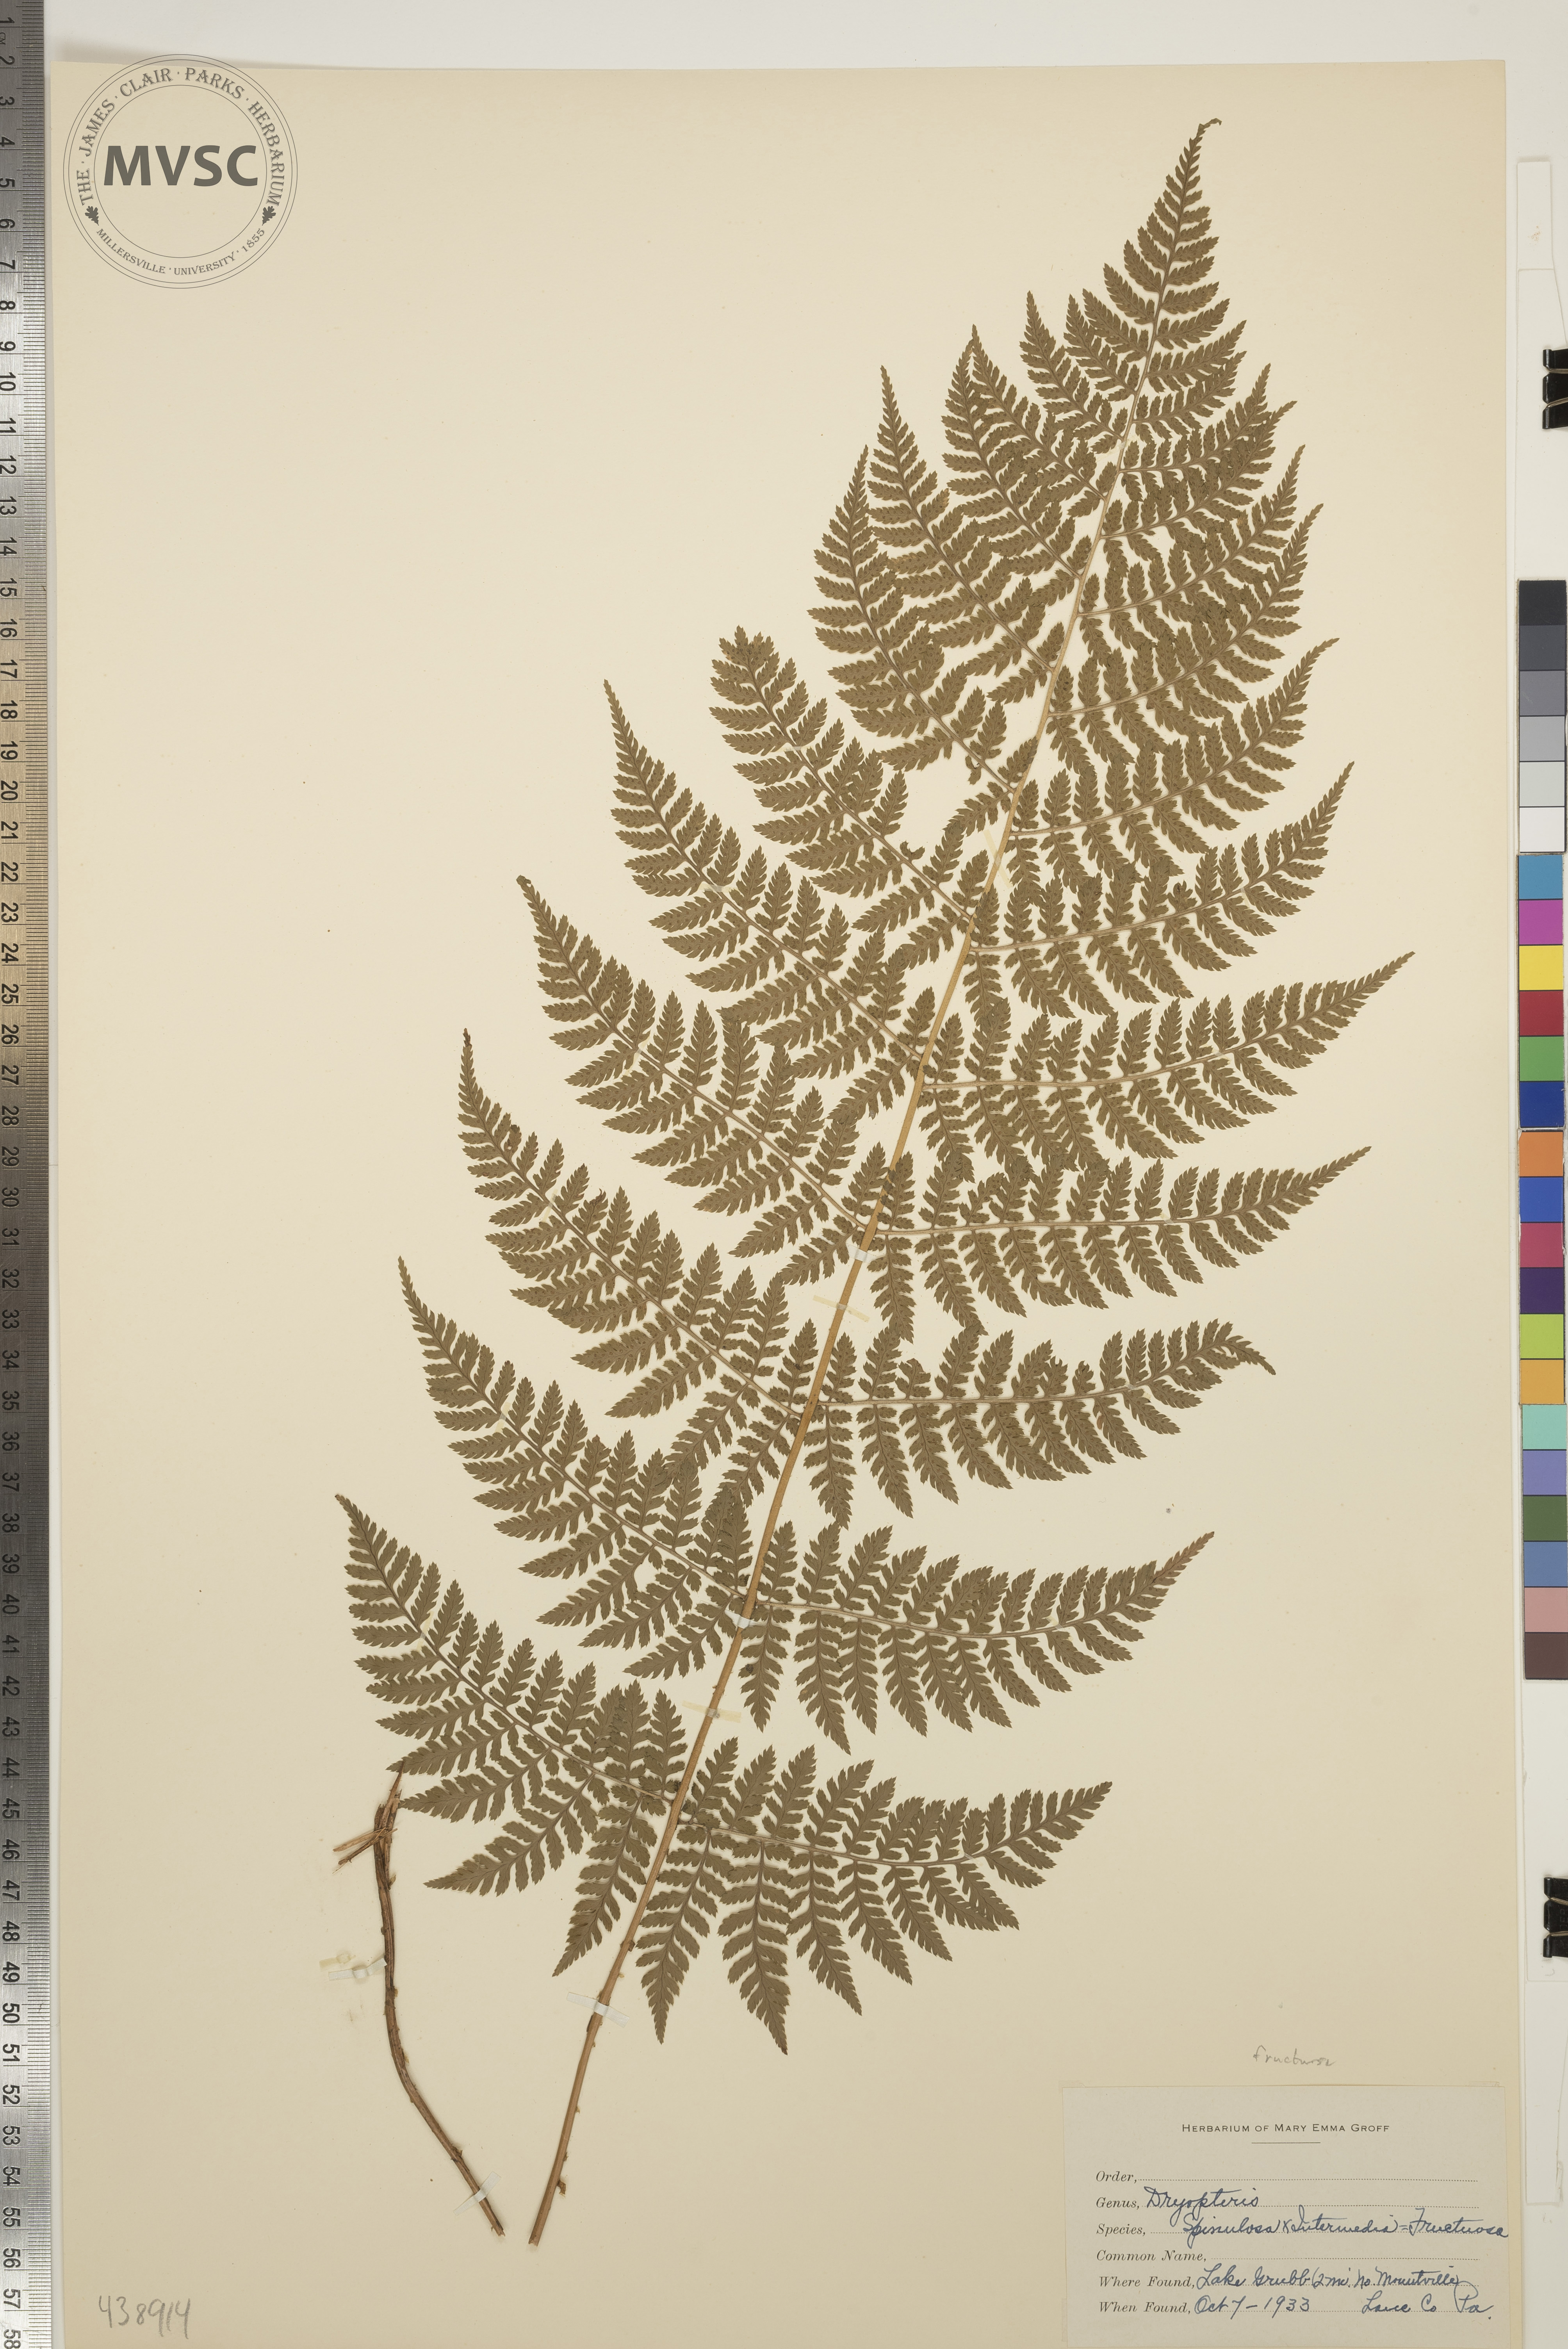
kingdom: Plantae
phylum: Tracheophyta
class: Polypodiopsida
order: Polypodiales
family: Dryopteridaceae
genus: Dryopteris
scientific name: Dryopteris
